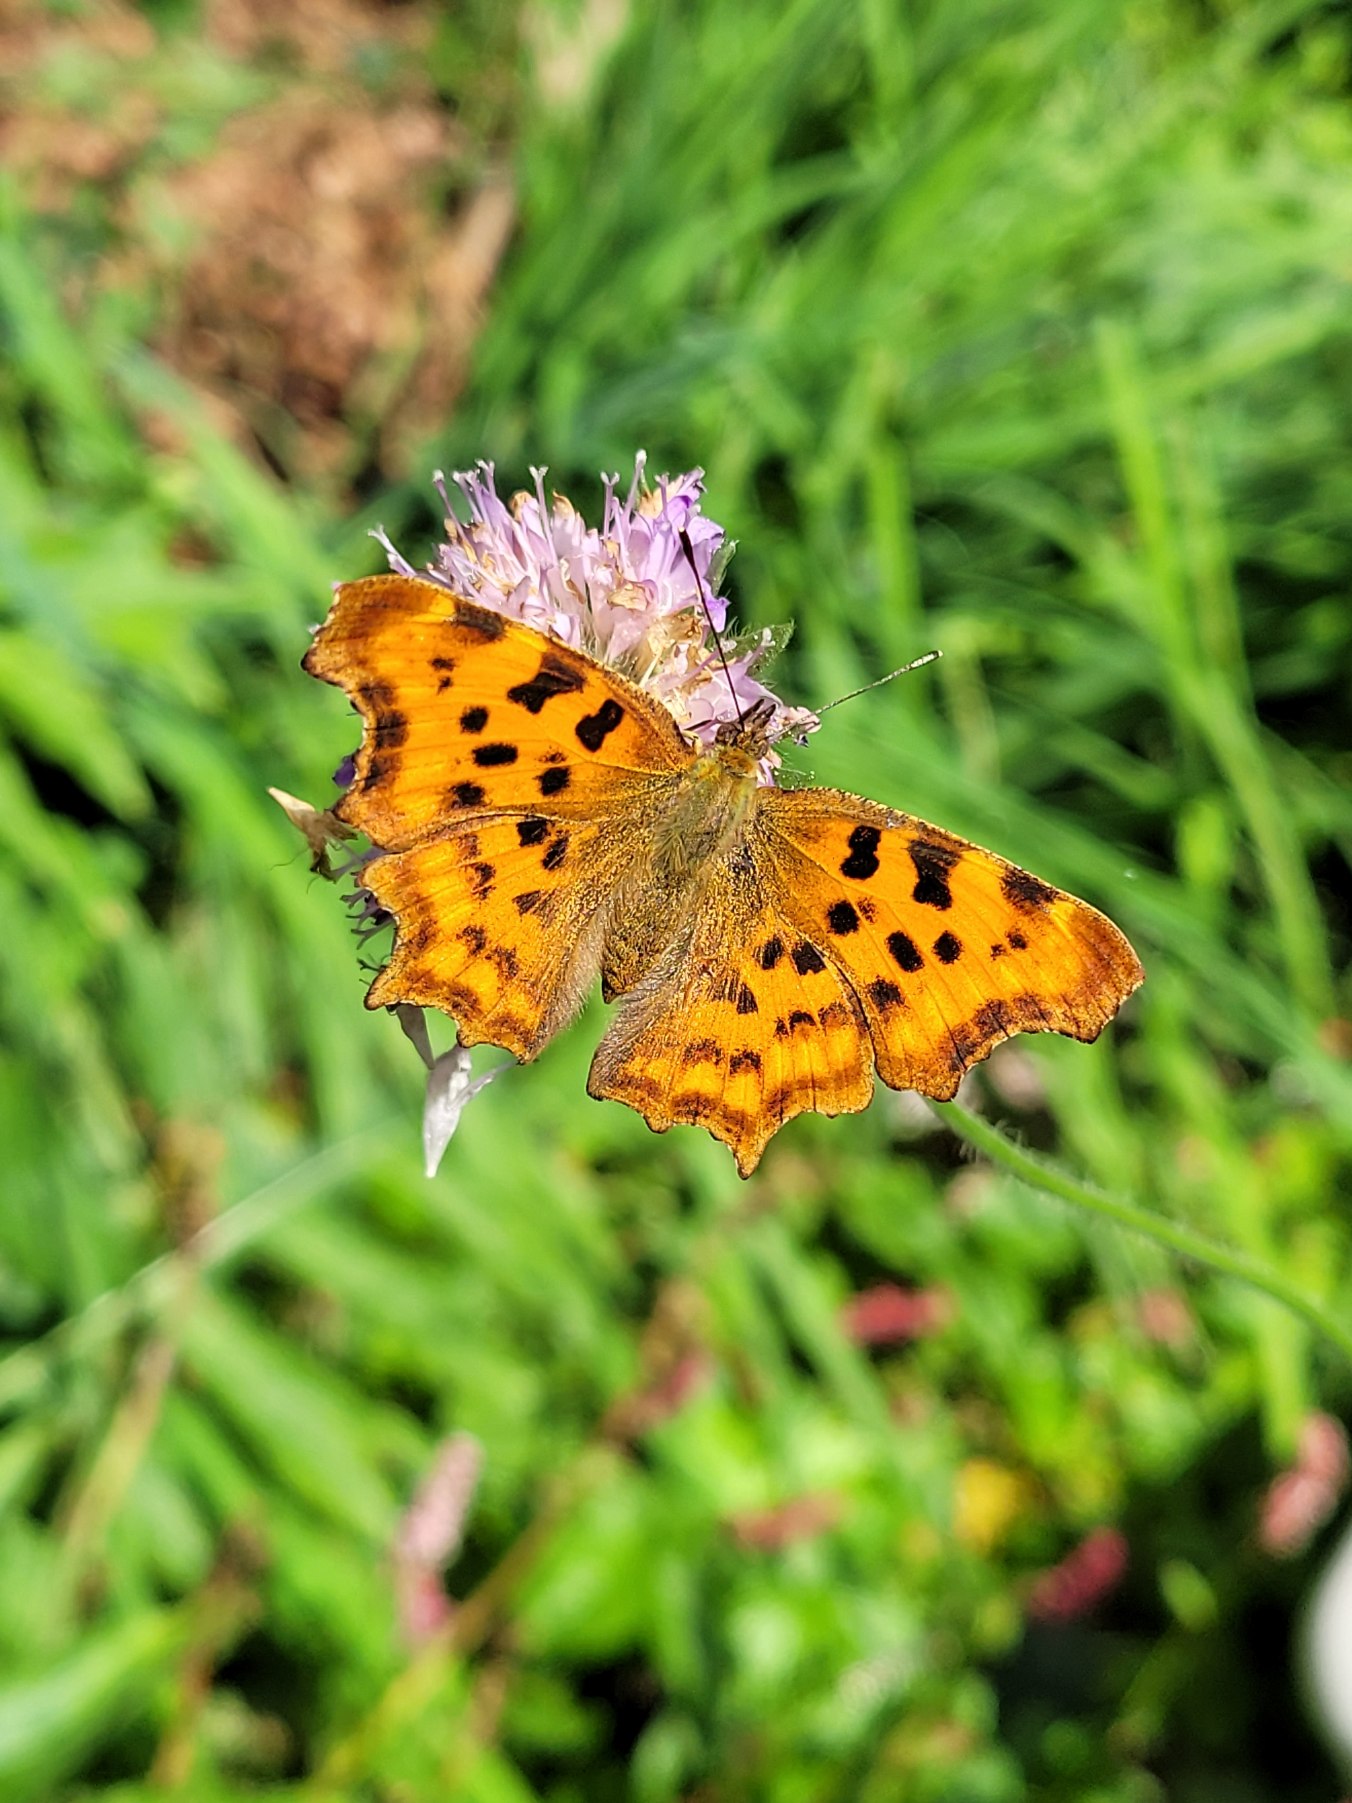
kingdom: Animalia
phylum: Arthropoda
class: Insecta
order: Lepidoptera
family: Nymphalidae
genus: Polygonia
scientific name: Polygonia c-album
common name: Det hvide C
